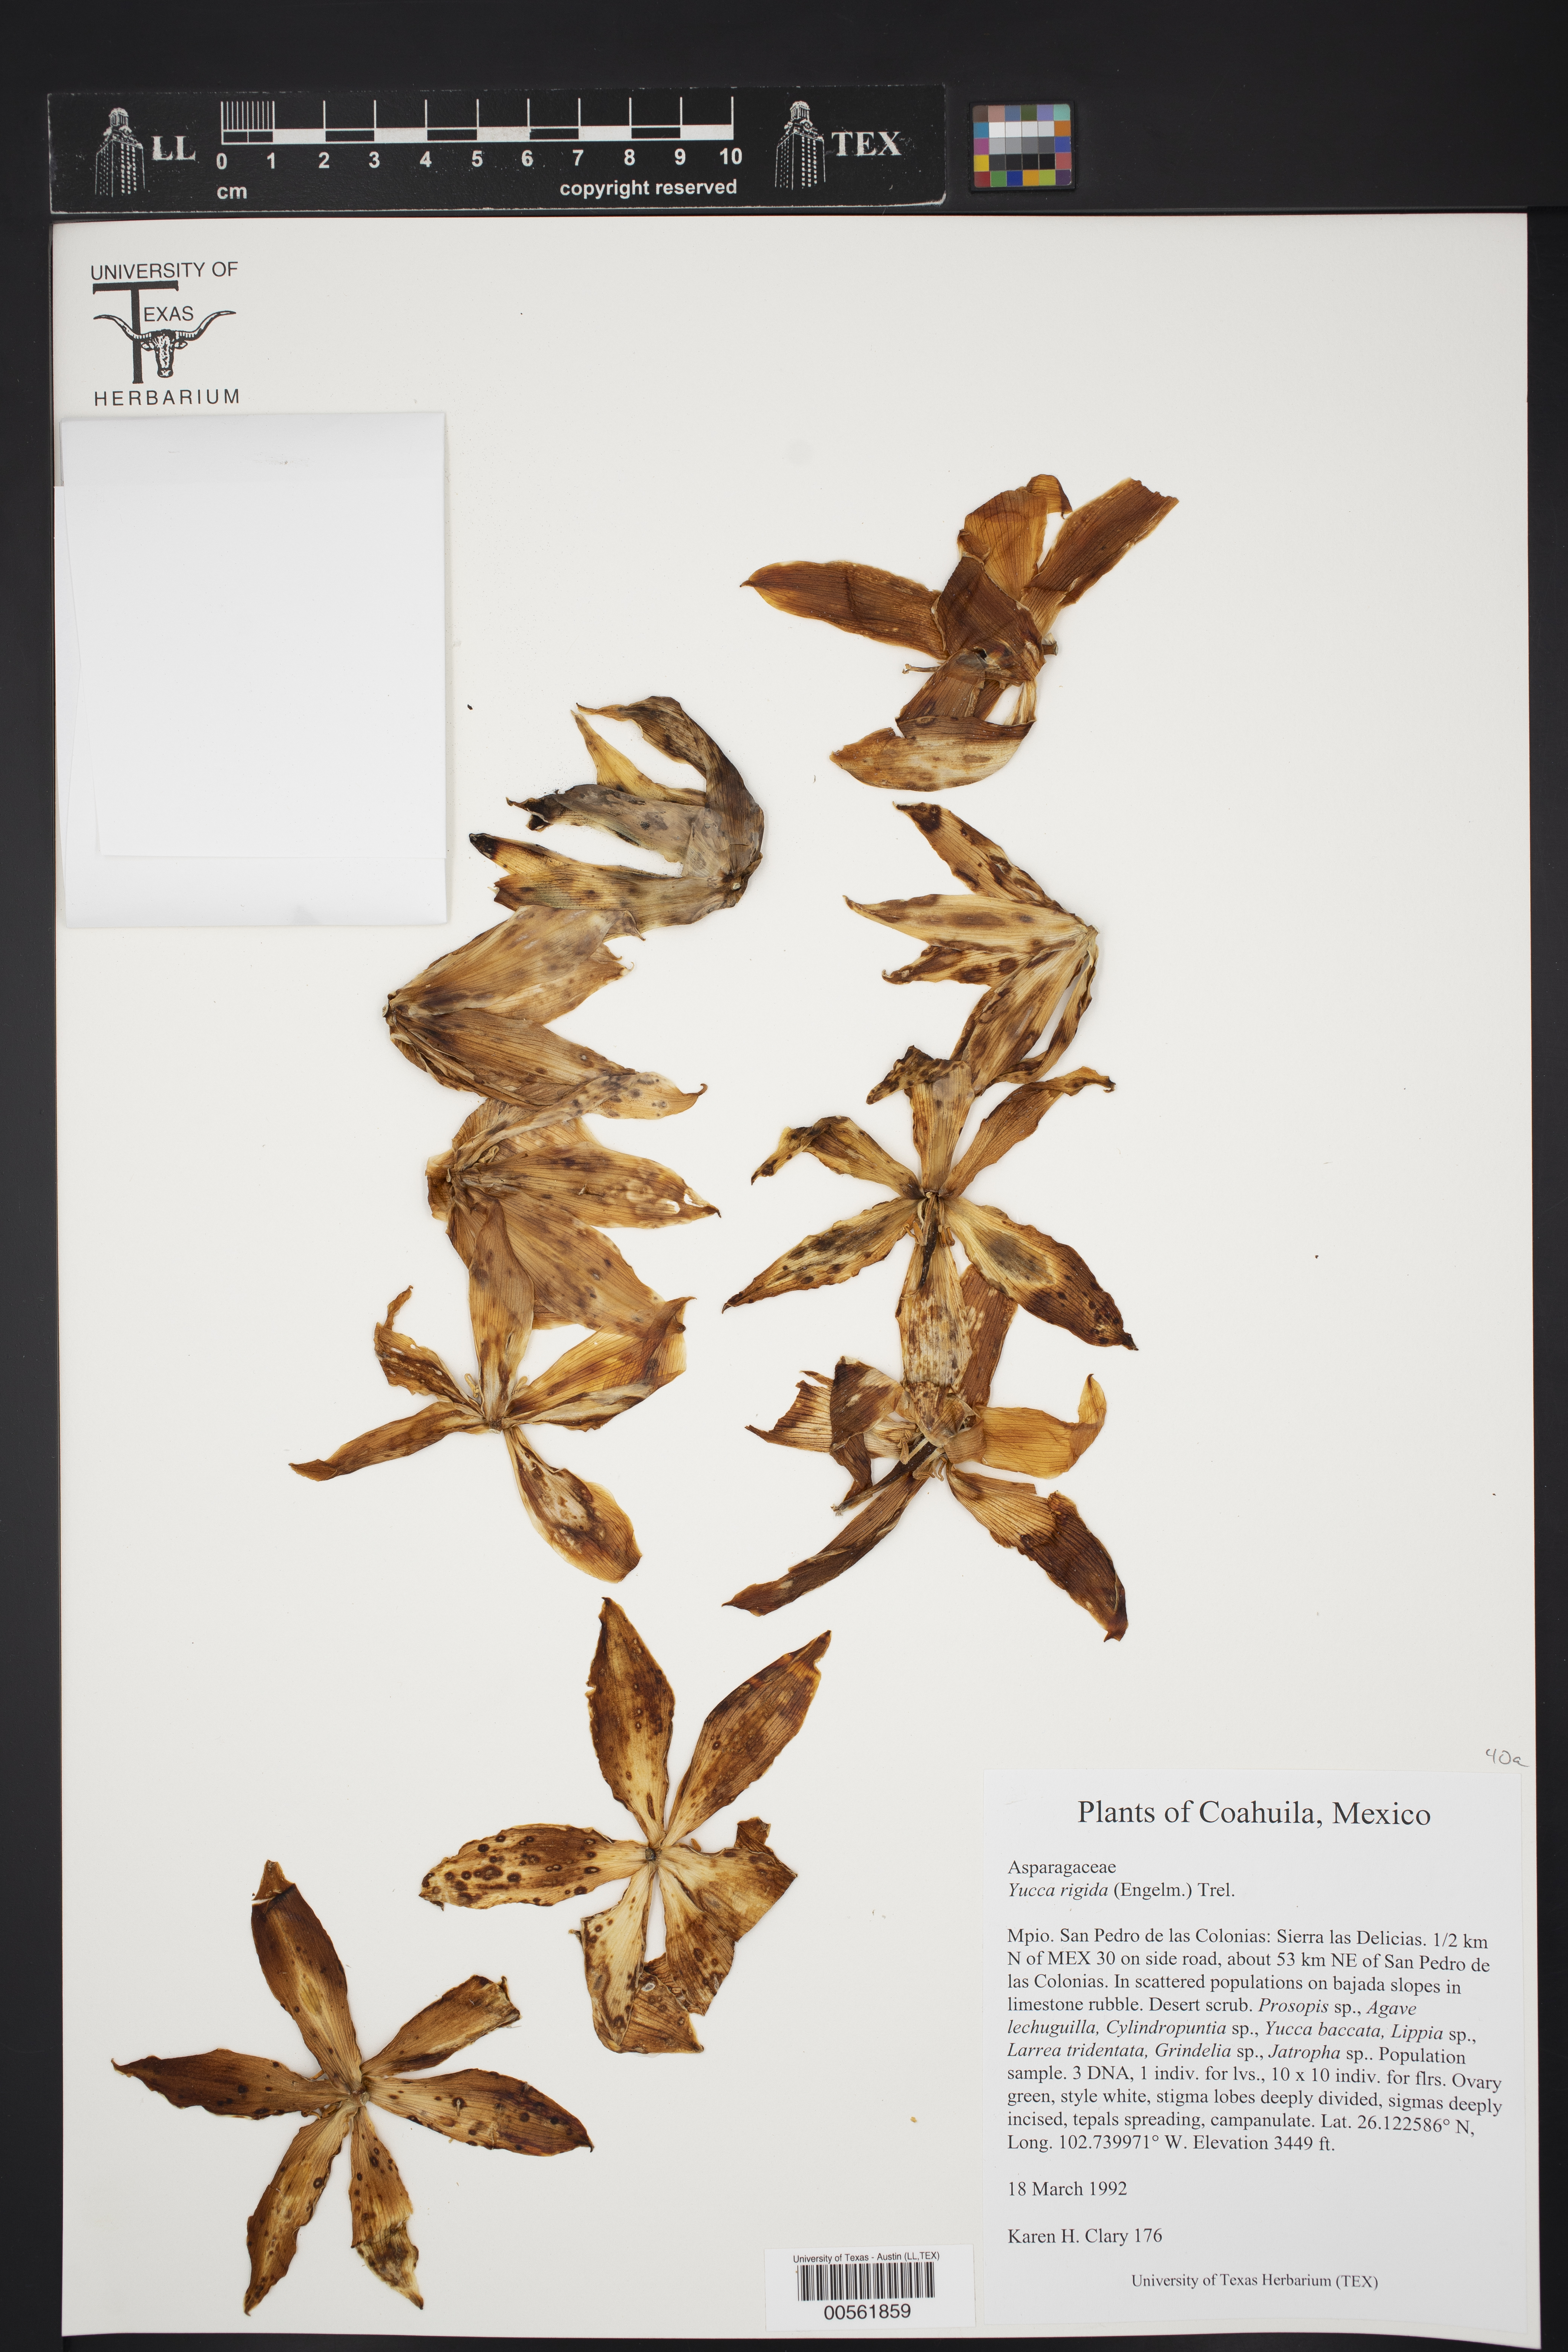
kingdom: Plantae
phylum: Tracheophyta
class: Liliopsida
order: Asparagales
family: Asparagaceae
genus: Yucca
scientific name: Yucca
